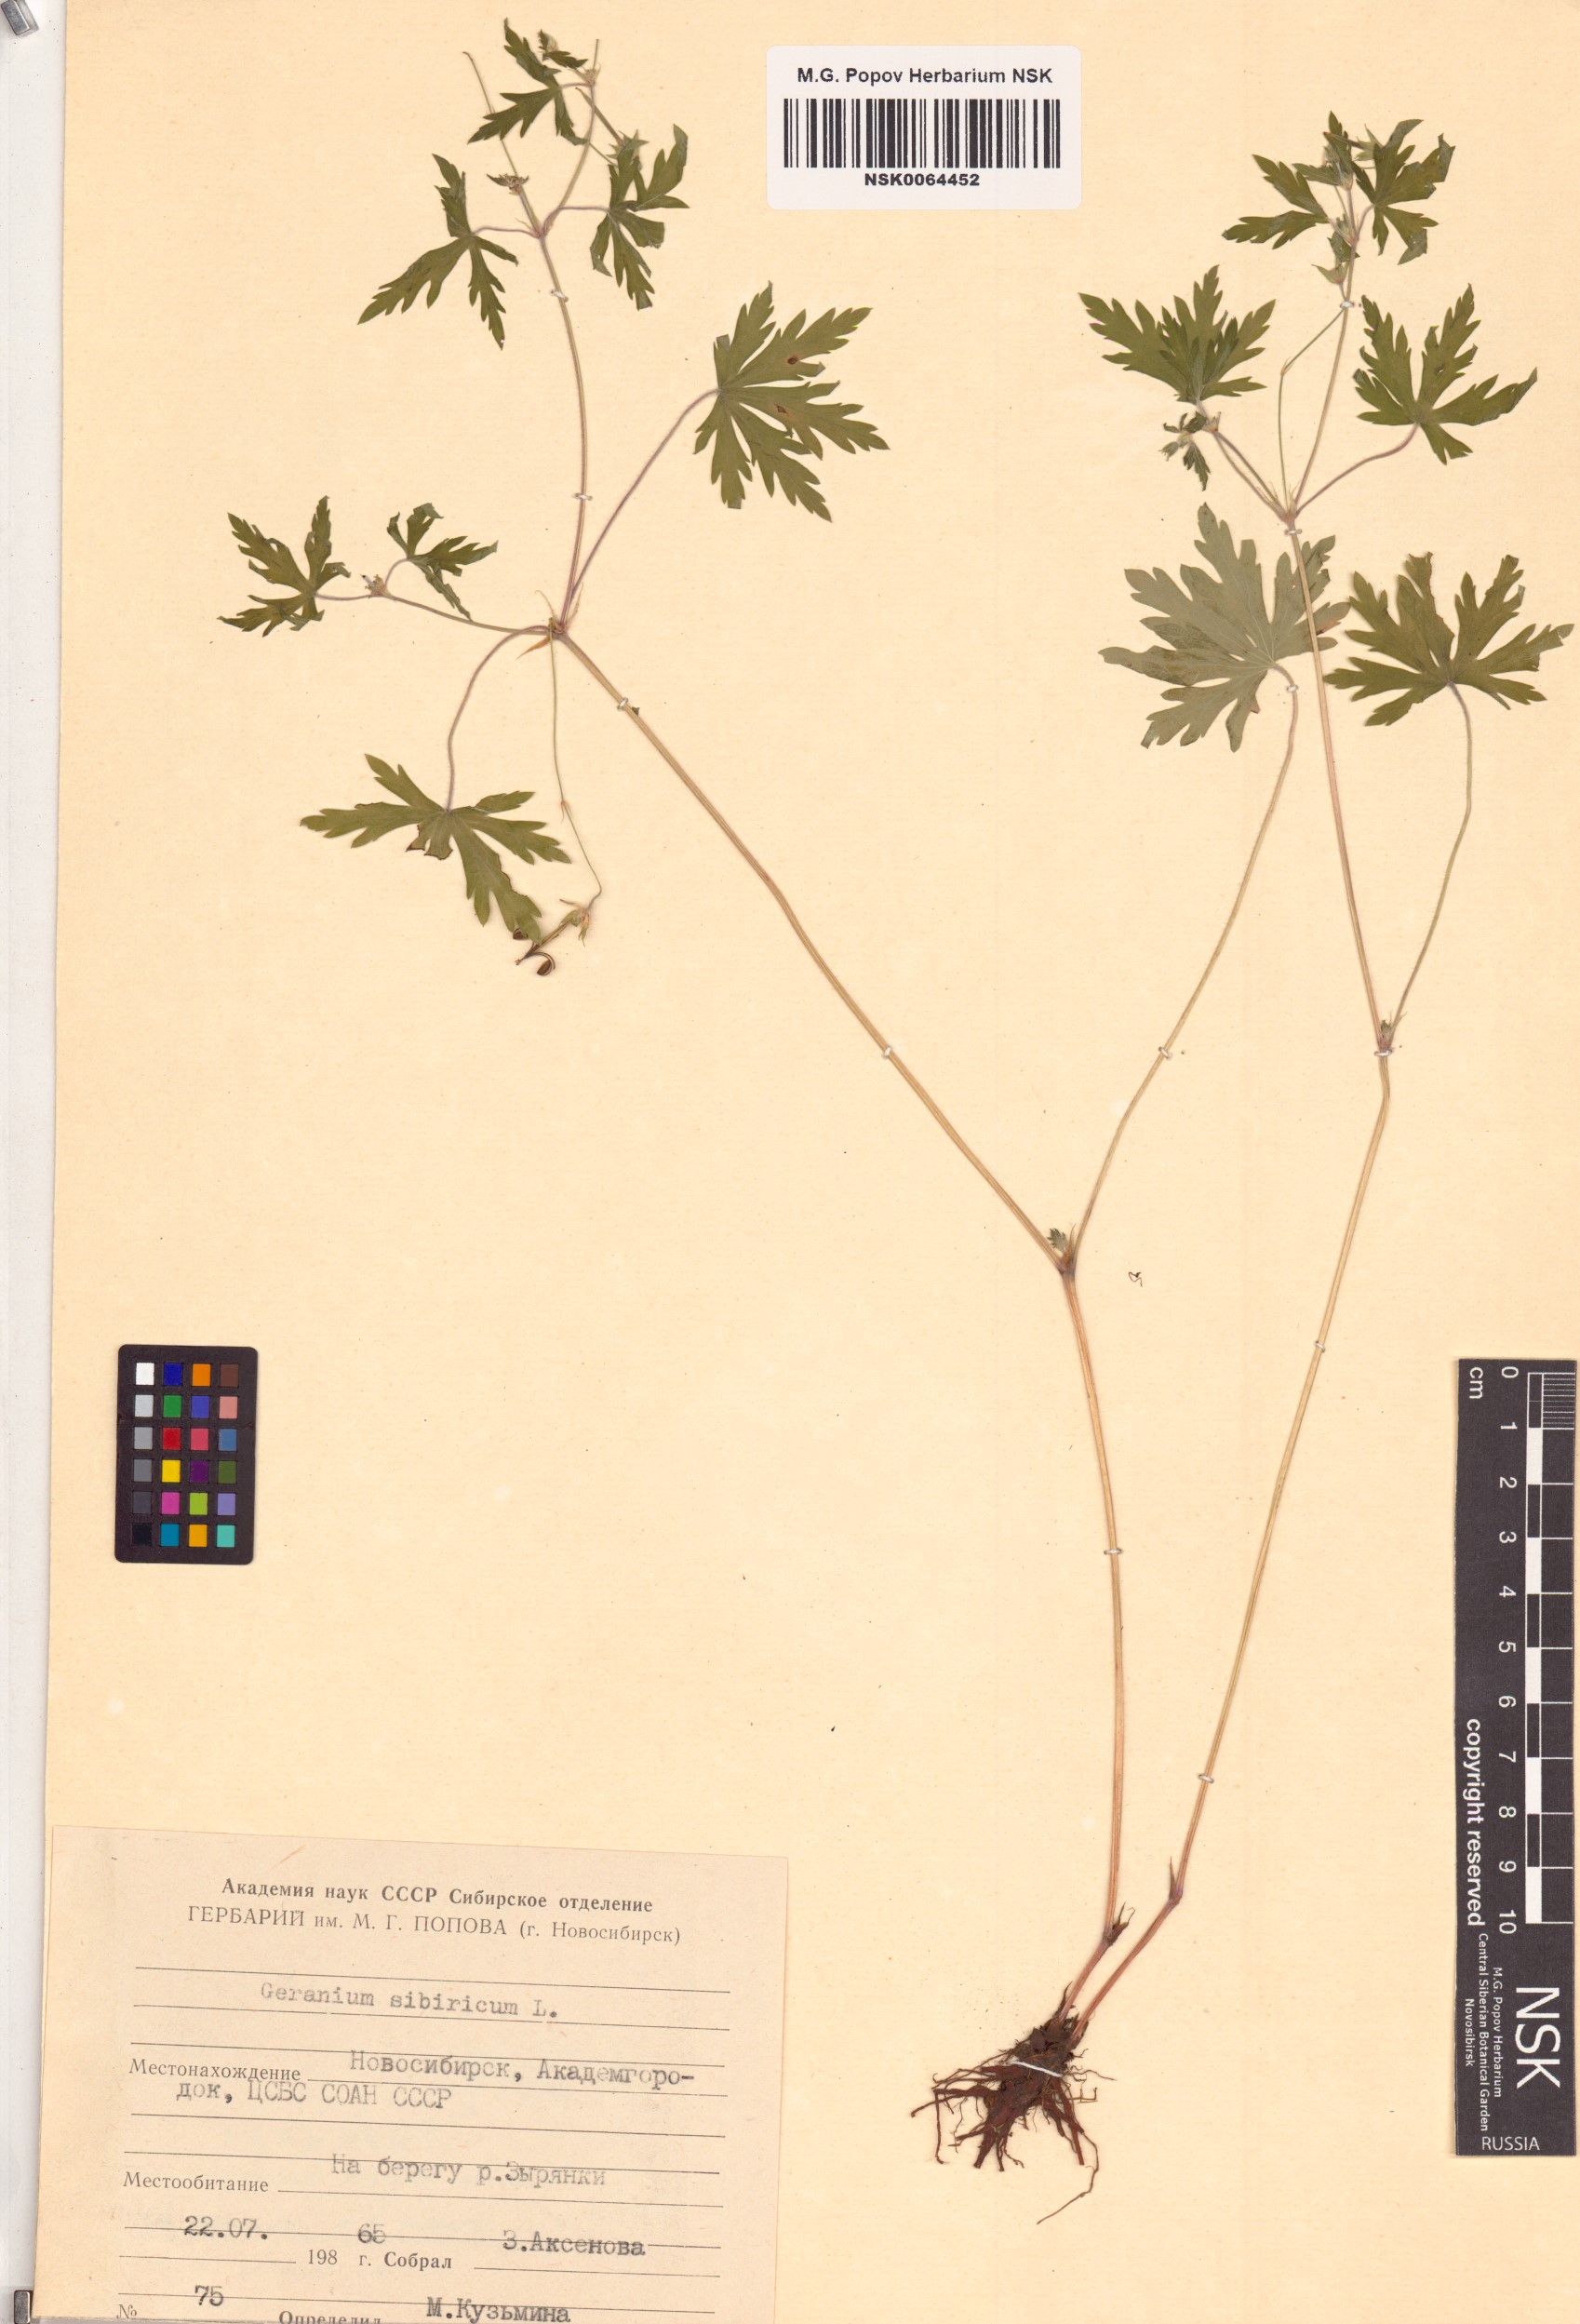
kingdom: Plantae
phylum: Tracheophyta
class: Magnoliopsida
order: Geraniales
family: Geraniaceae
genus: Geranium
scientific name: Geranium sibiricum
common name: Siberian crane's-bill
